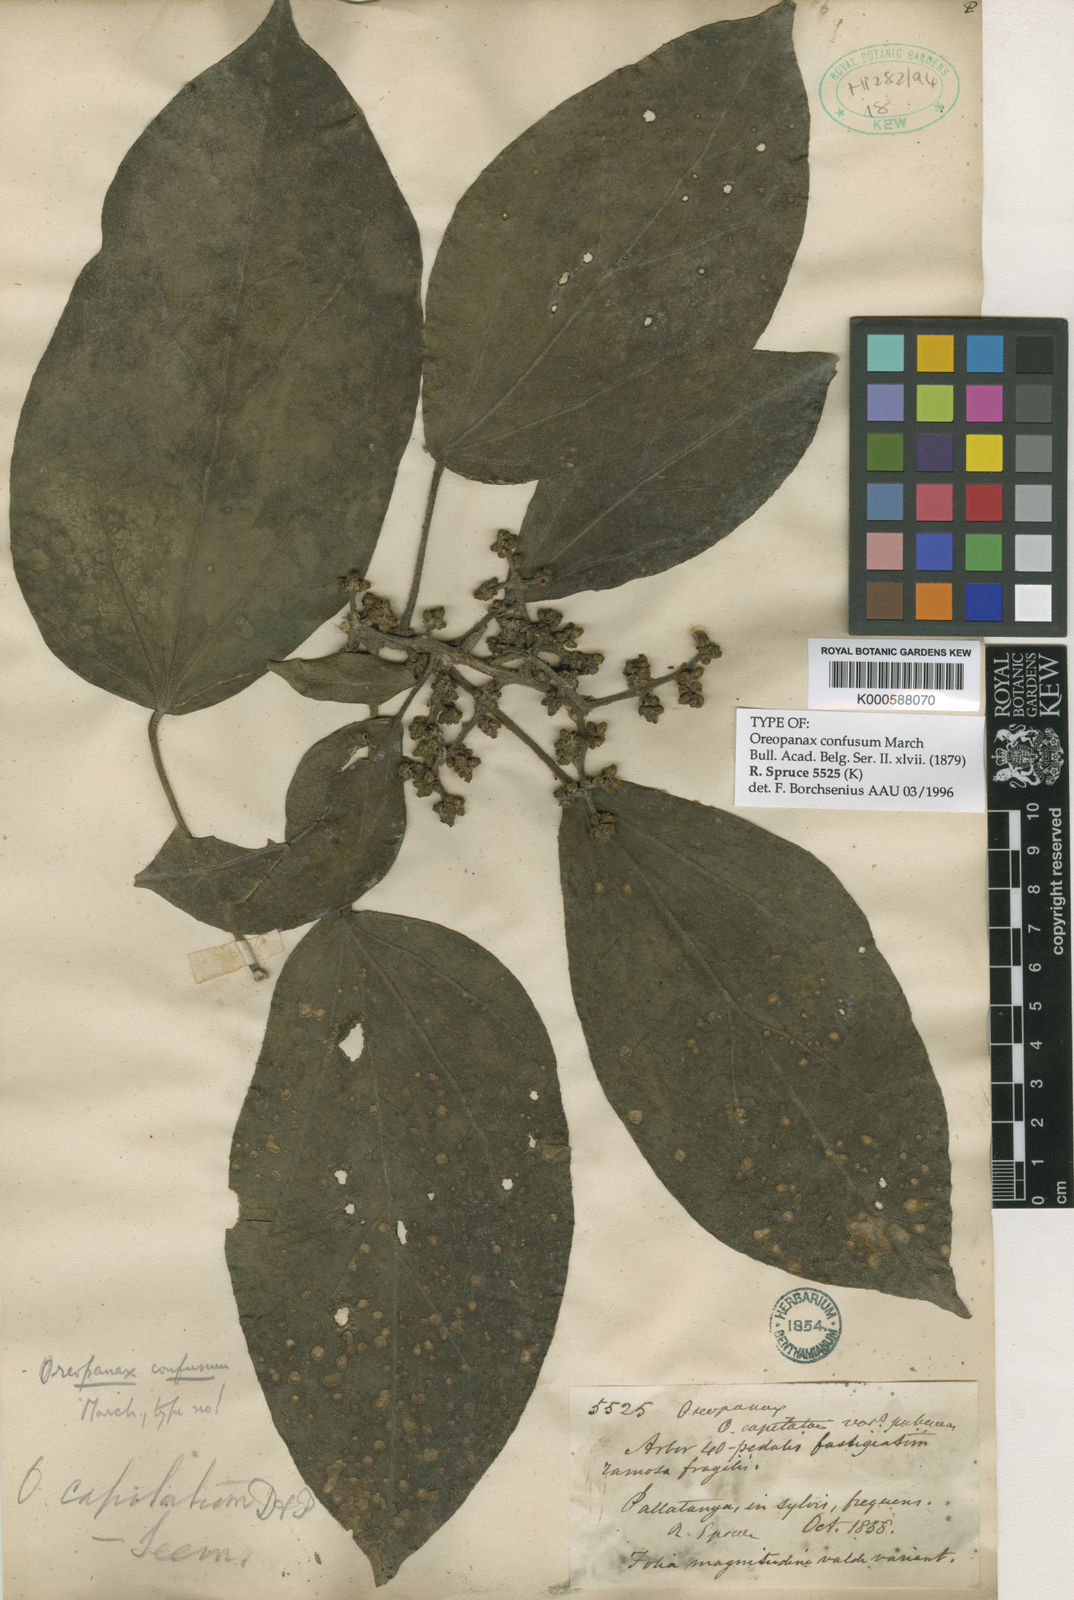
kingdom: Plantae
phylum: Tracheophyta
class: Magnoliopsida
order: Apiales
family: Araliaceae
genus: Oreopanax
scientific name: Oreopanax confusus
